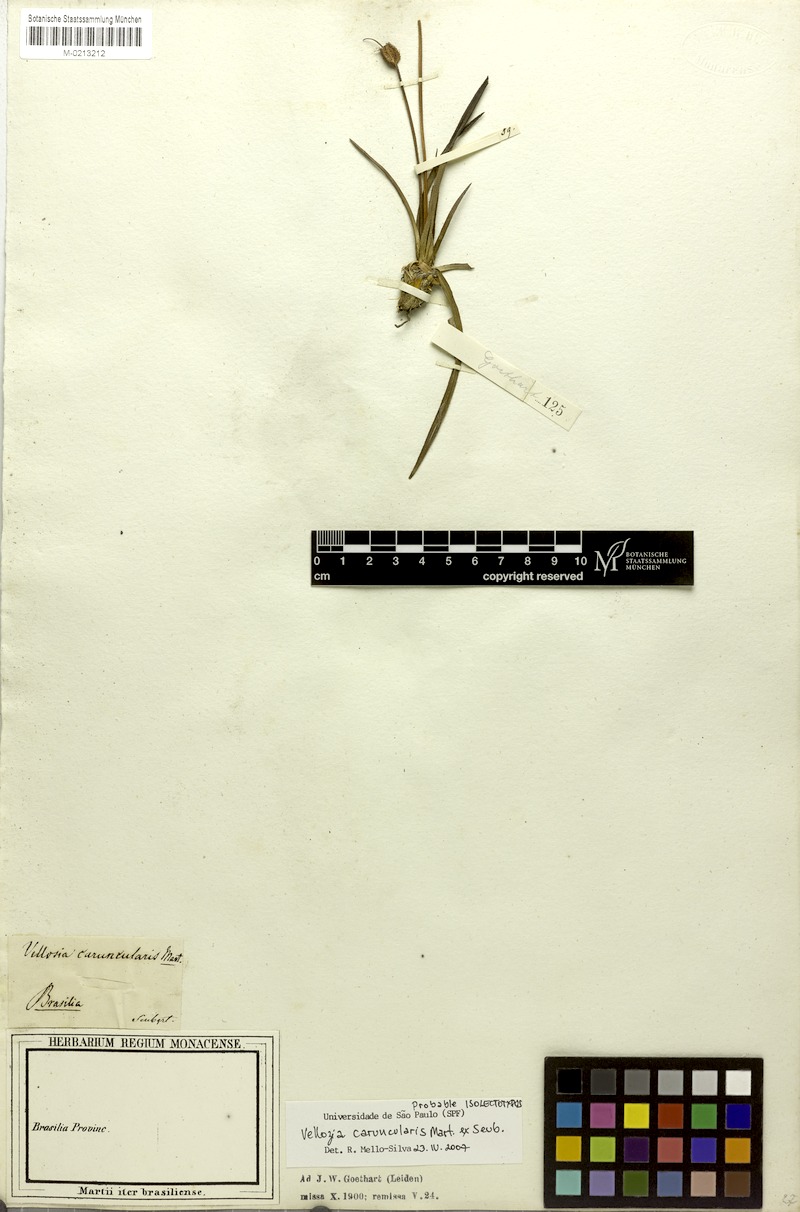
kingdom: Plantae
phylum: Tracheophyta
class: Liliopsida
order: Pandanales
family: Velloziaceae
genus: Vellozia
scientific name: Vellozia caruncularis
